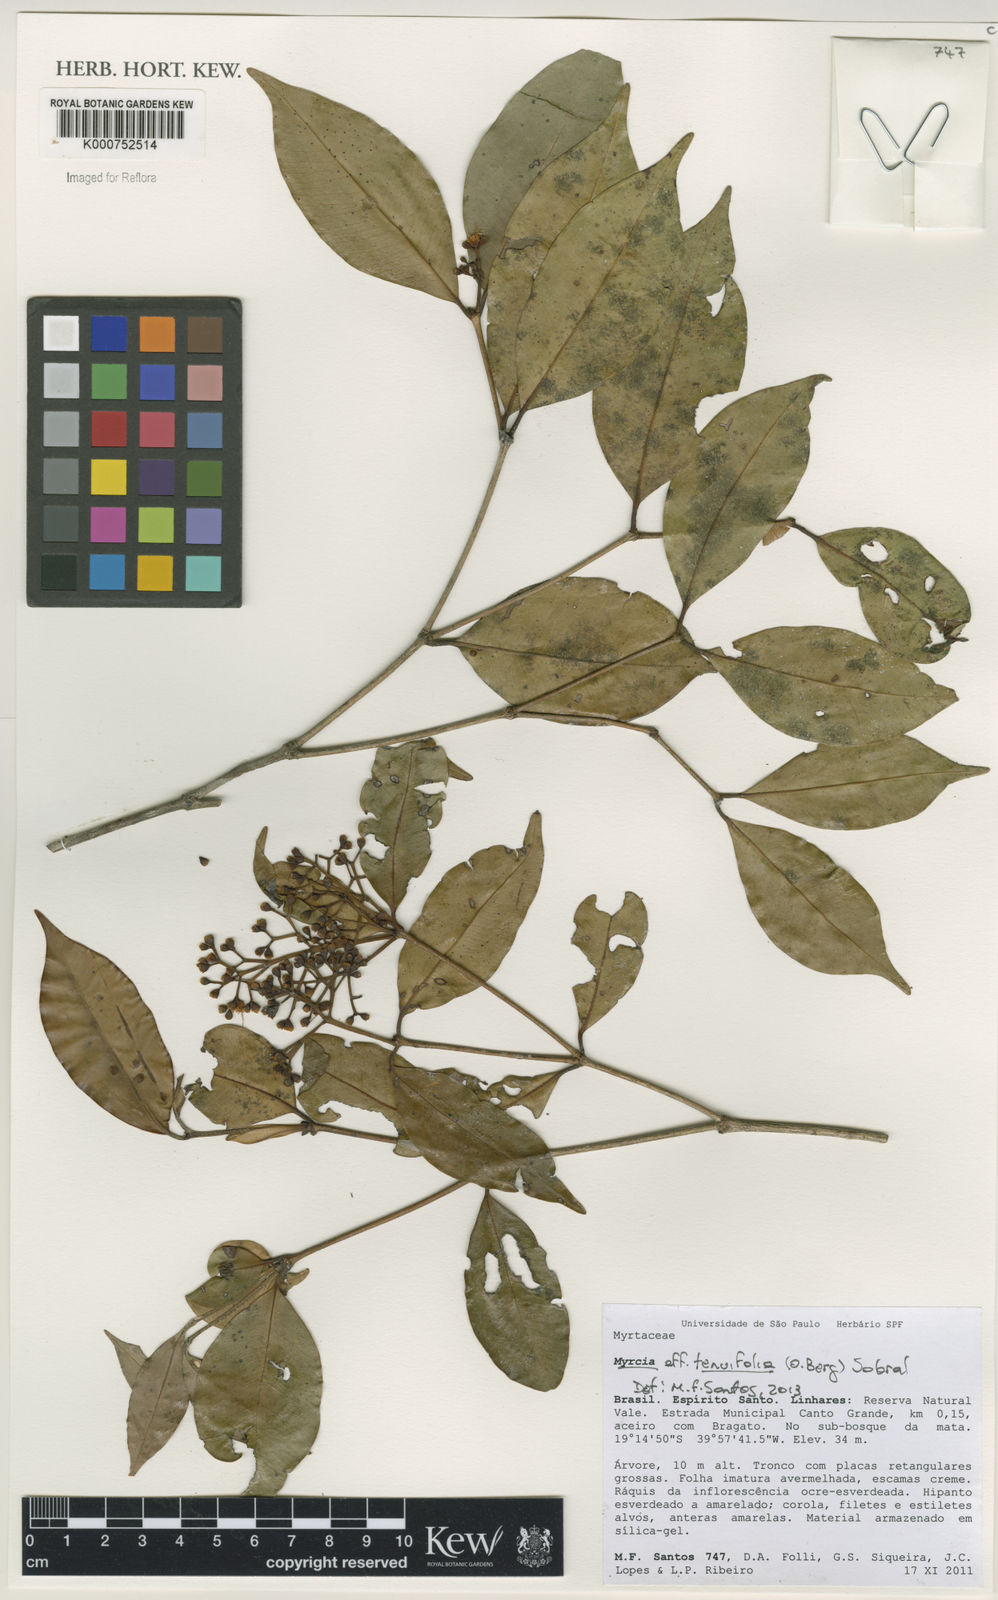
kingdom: Plantae
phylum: Tracheophyta
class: Magnoliopsida
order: Myrtales
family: Myrtaceae
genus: Myrcia
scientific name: Myrcia tenuifolia
